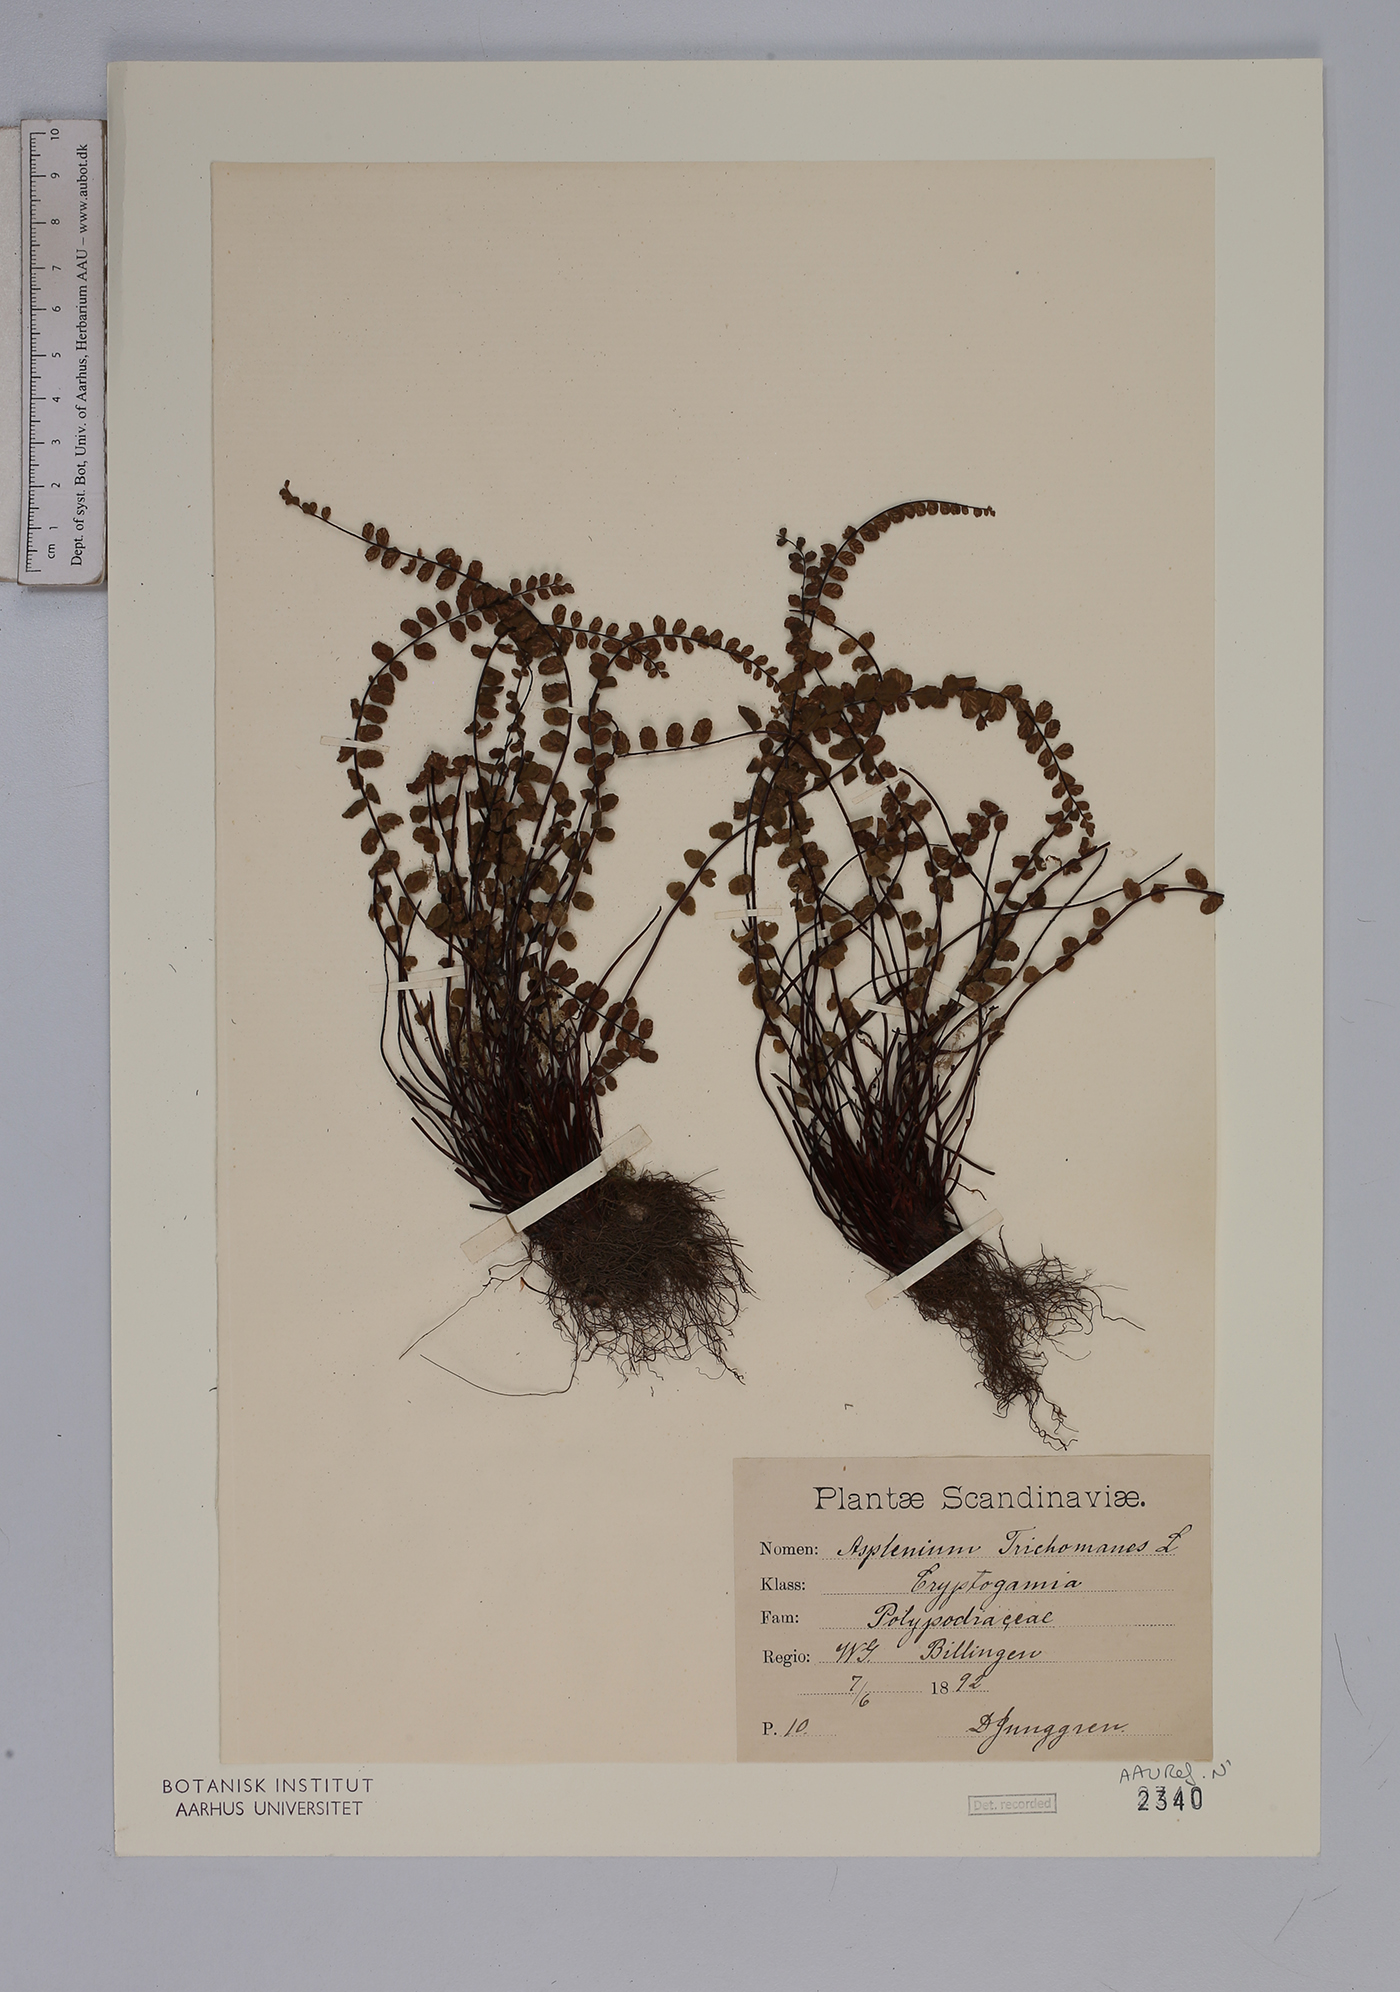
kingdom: Plantae
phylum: Tracheophyta
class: Polypodiopsida
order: Polypodiales
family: Aspleniaceae
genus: Asplenium
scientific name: Asplenium trichomanes
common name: Maidenhair spleenwort
